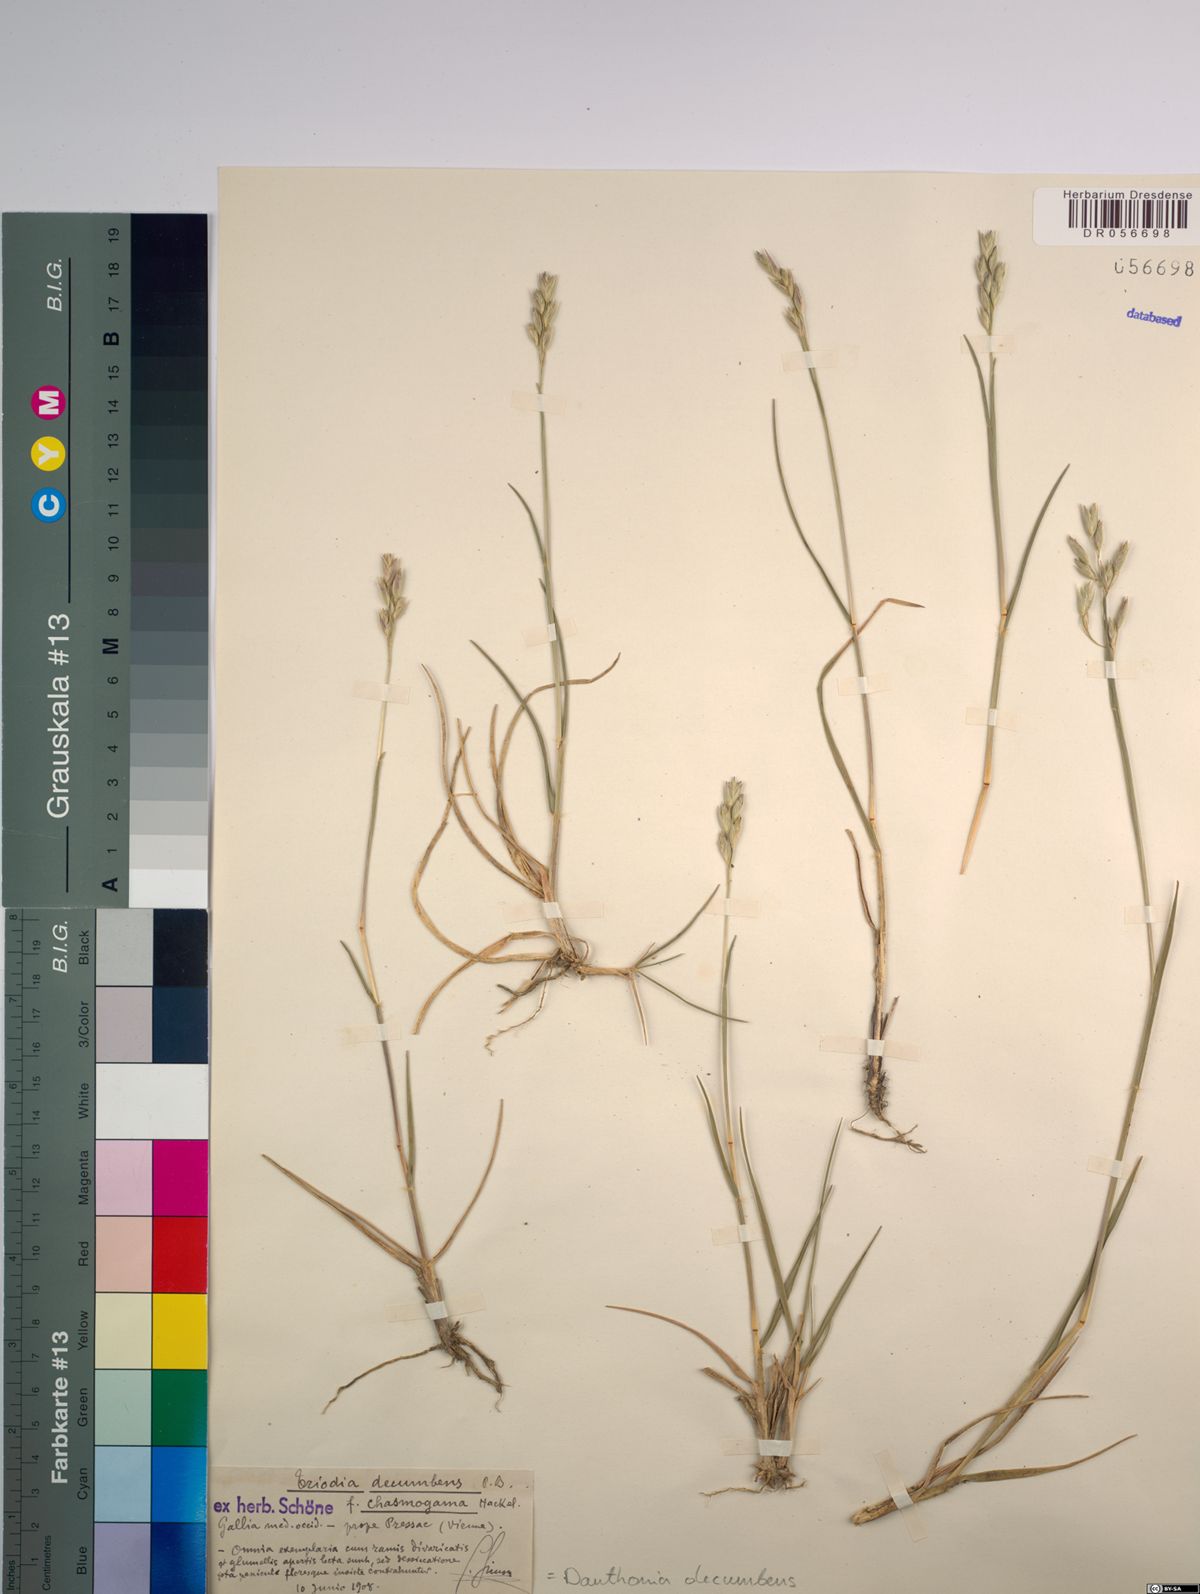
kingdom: Plantae
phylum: Tracheophyta
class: Liliopsida
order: Poales
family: Poaceae
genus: Danthonia
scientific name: Danthonia decumbens
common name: Common heathgrass
